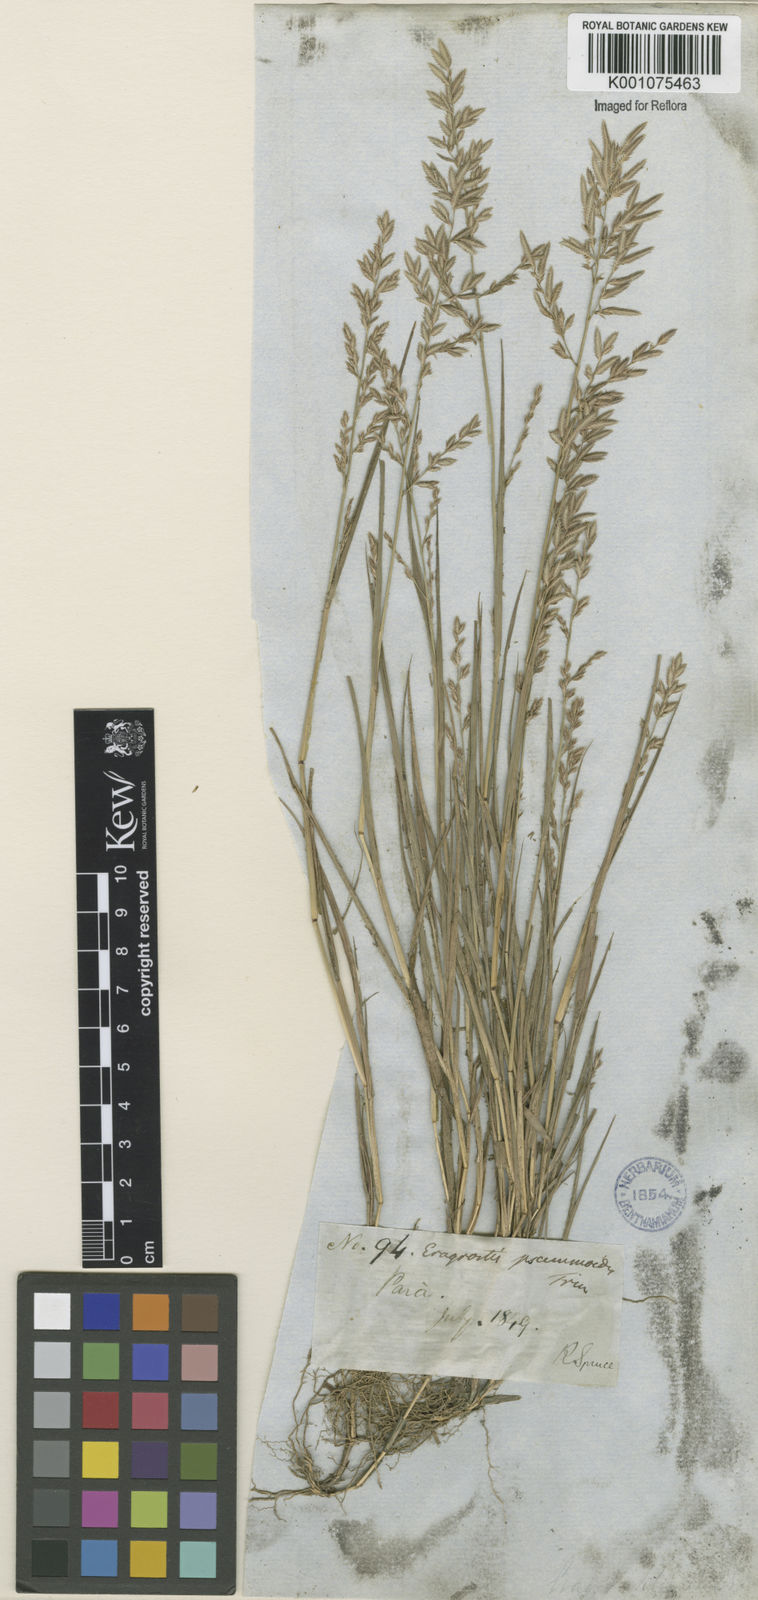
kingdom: Plantae
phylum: Tracheophyta
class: Liliopsida
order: Poales
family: Poaceae
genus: Eragrostis
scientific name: Eragrostis maypurensis
